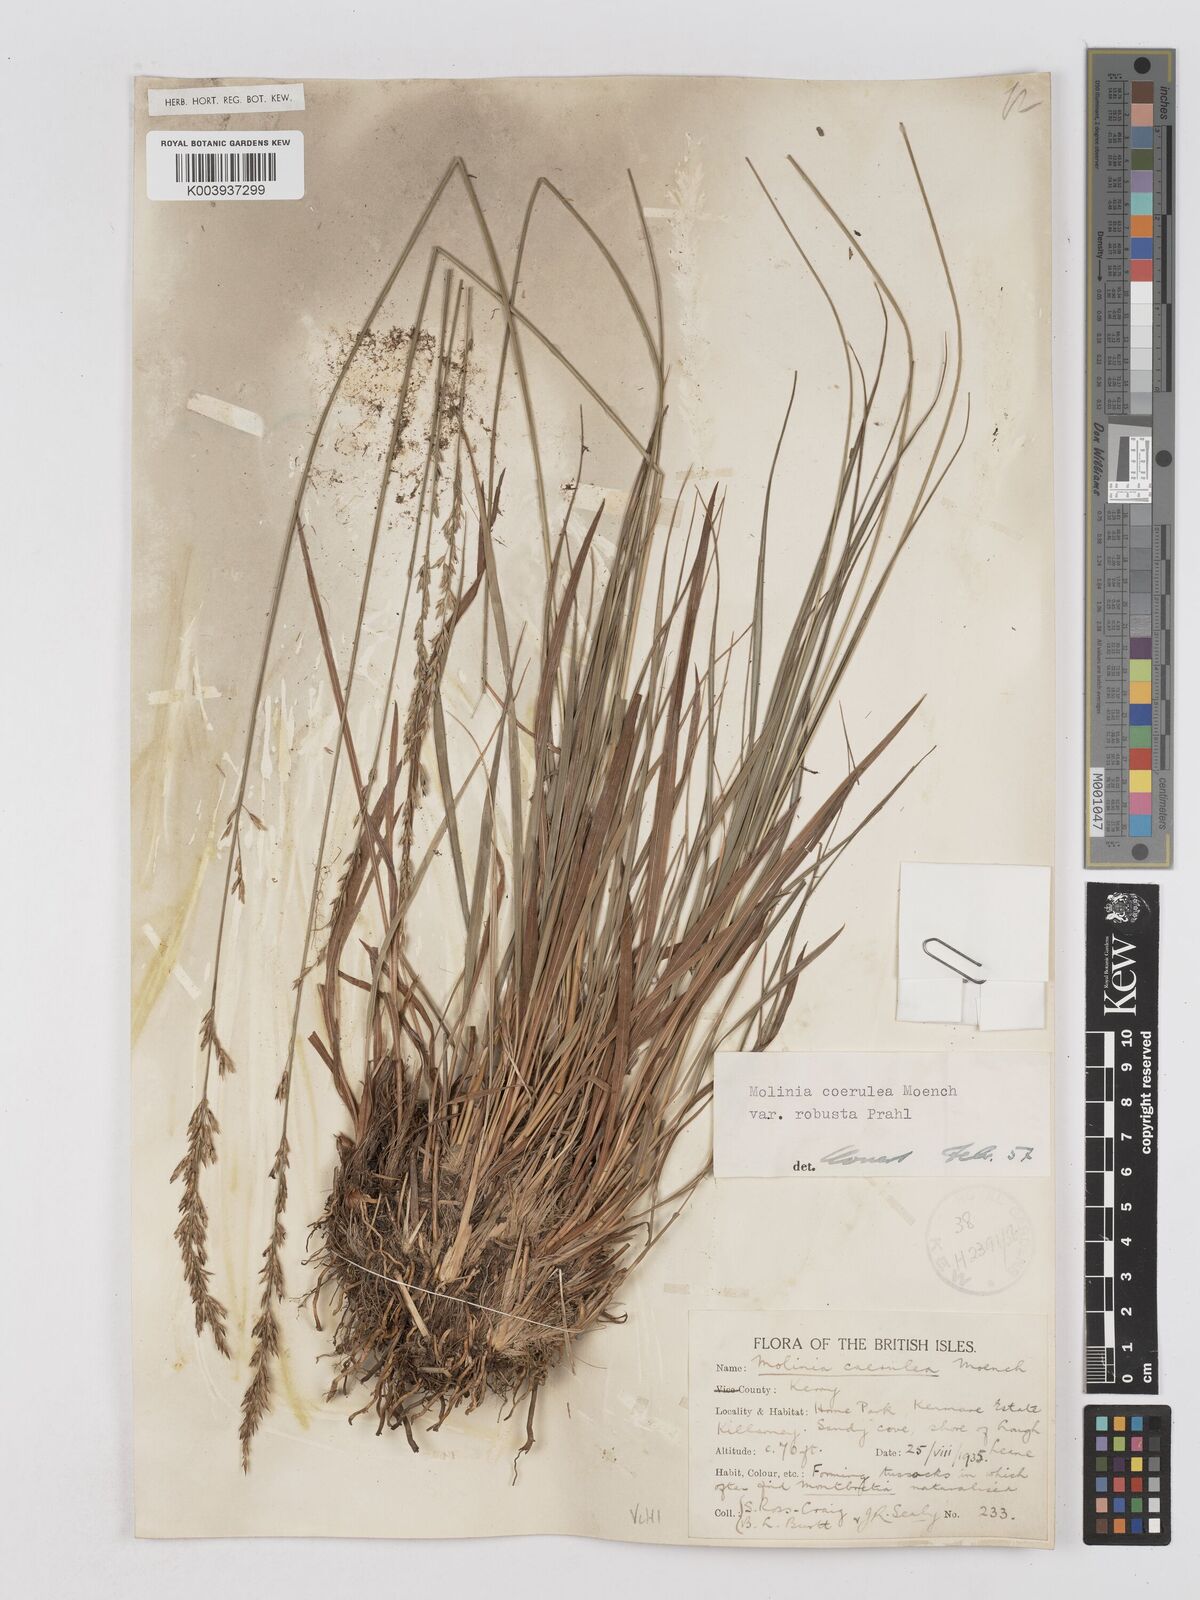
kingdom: Plantae
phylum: Tracheophyta
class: Liliopsida
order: Poales
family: Poaceae
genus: Molinia
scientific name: Molinia caerulea
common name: Purple moor-grass
